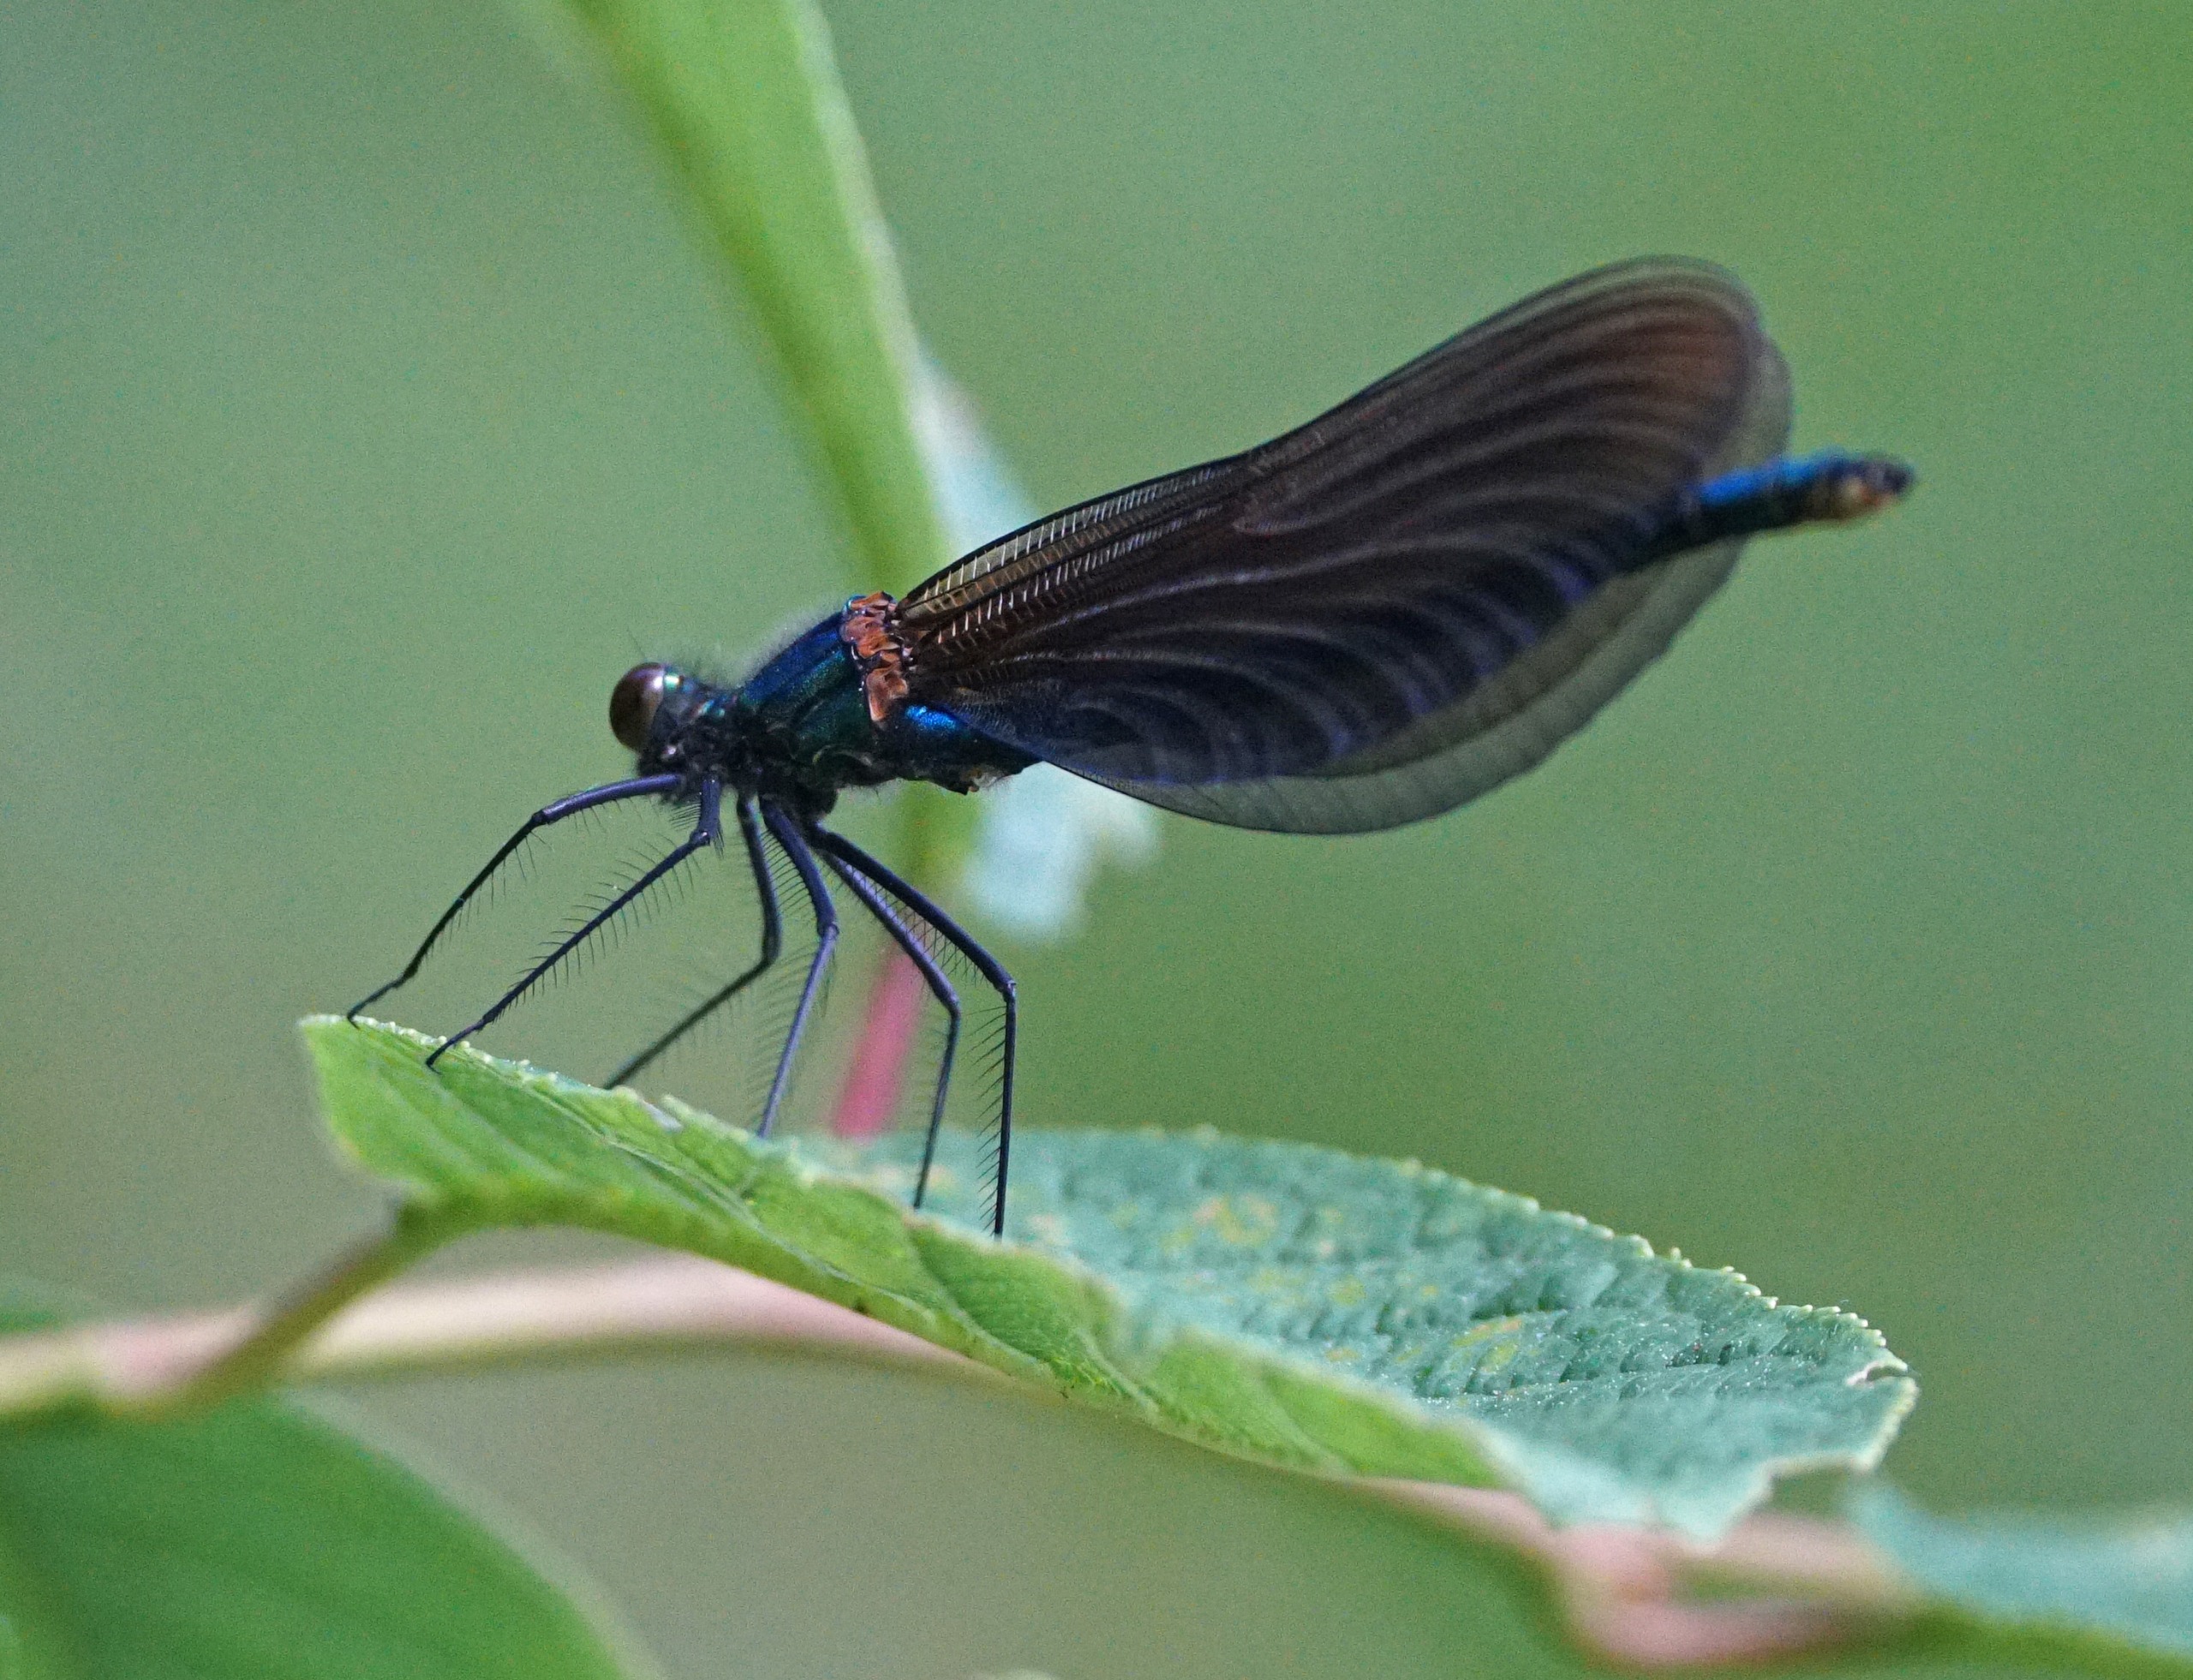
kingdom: Animalia
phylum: Arthropoda
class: Insecta
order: Odonata
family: Calopterygidae
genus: Calopteryx
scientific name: Calopteryx virgo
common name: Blåvinget pragtvandnymfe
